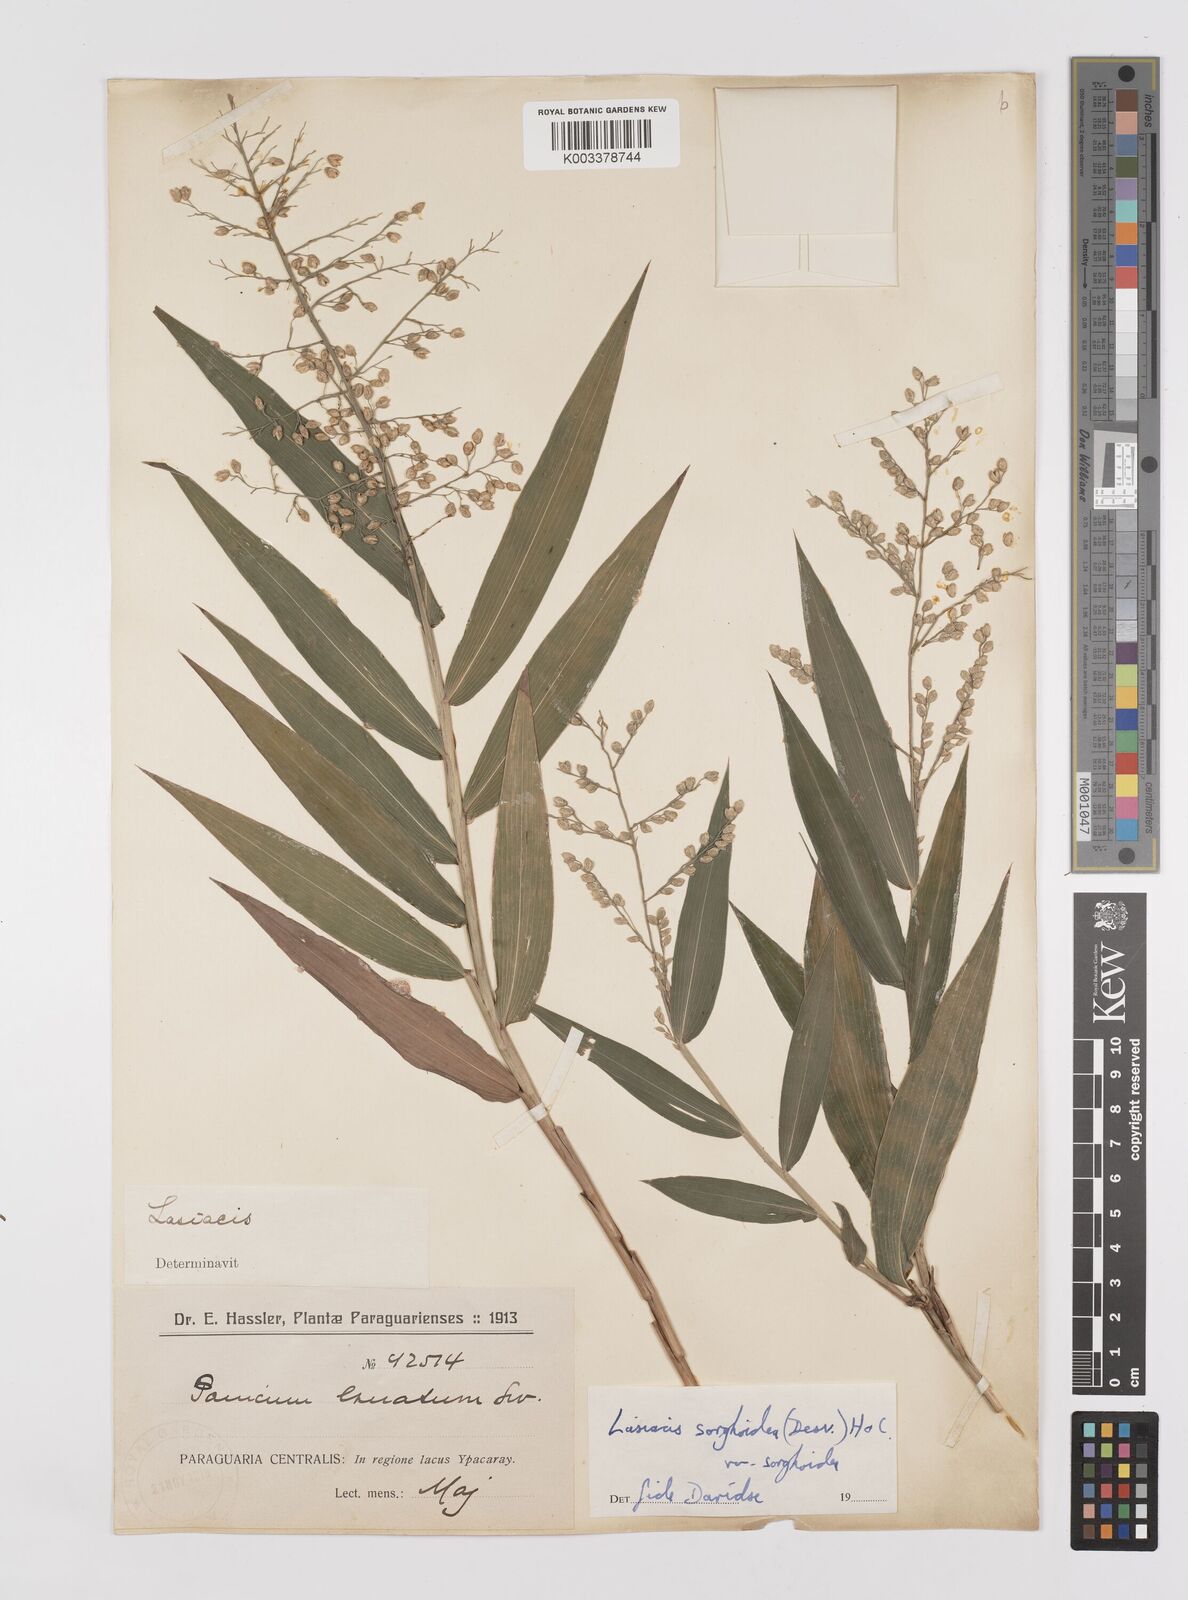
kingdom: Plantae
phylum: Tracheophyta
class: Liliopsida
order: Poales
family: Poaceae
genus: Lasiacis
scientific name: Lasiacis maculata
